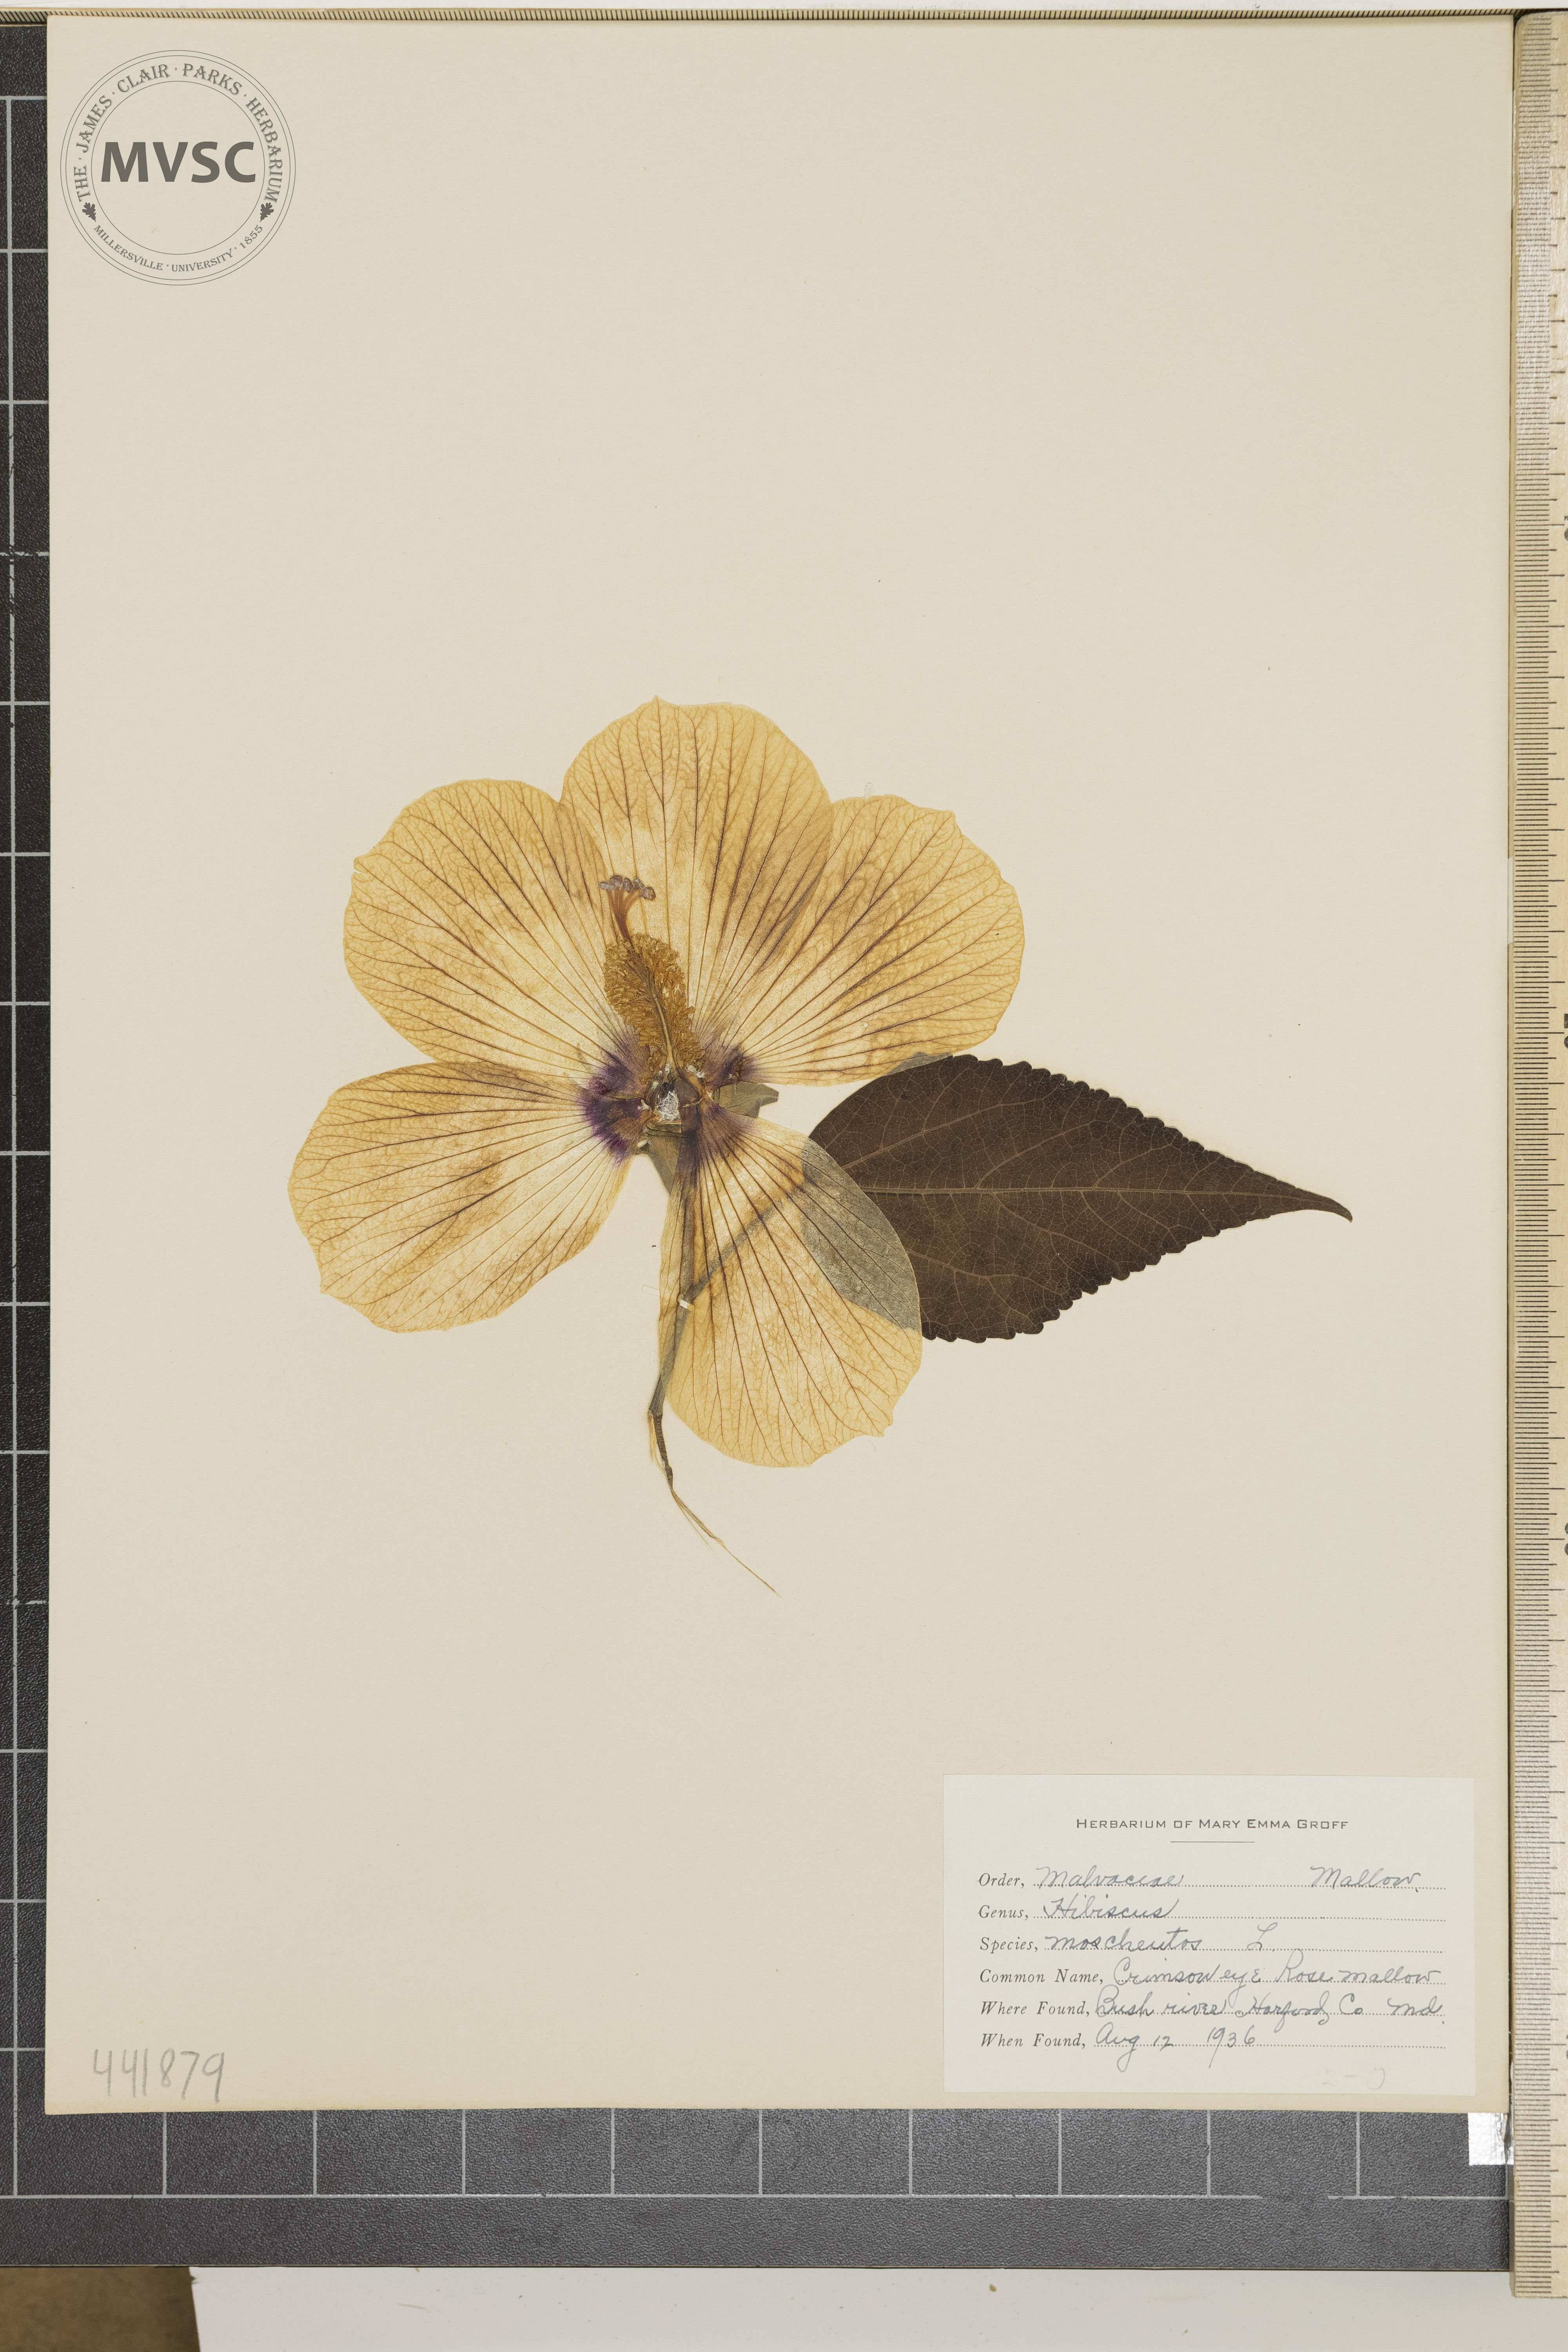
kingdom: Plantae
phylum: Tracheophyta
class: Magnoliopsida
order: Malvales
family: Malvaceae
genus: Hibiscus
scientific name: Hibiscus moscheutos
